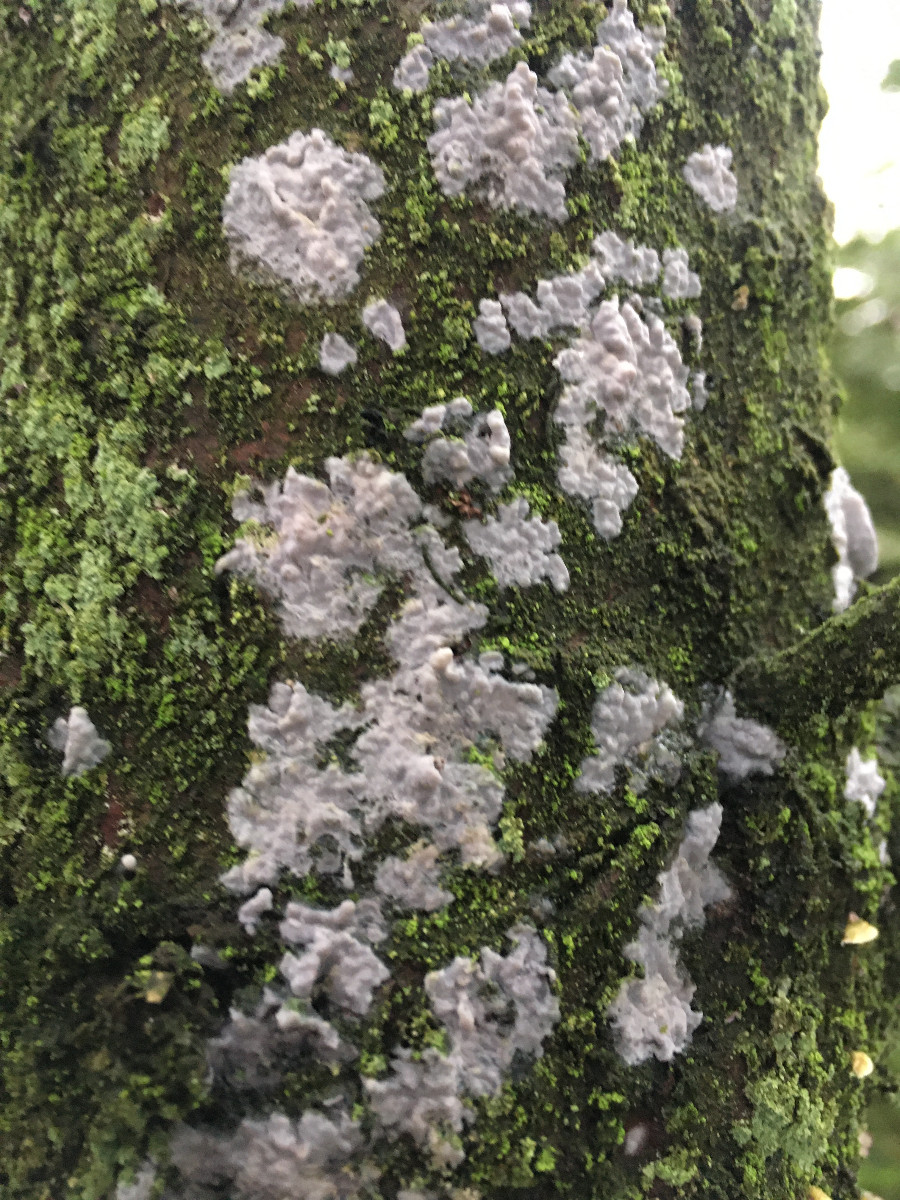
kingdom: Fungi
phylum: Basidiomycota
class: Agaricomycetes
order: Corticiales
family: Corticiaceae
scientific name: Corticiaceae
